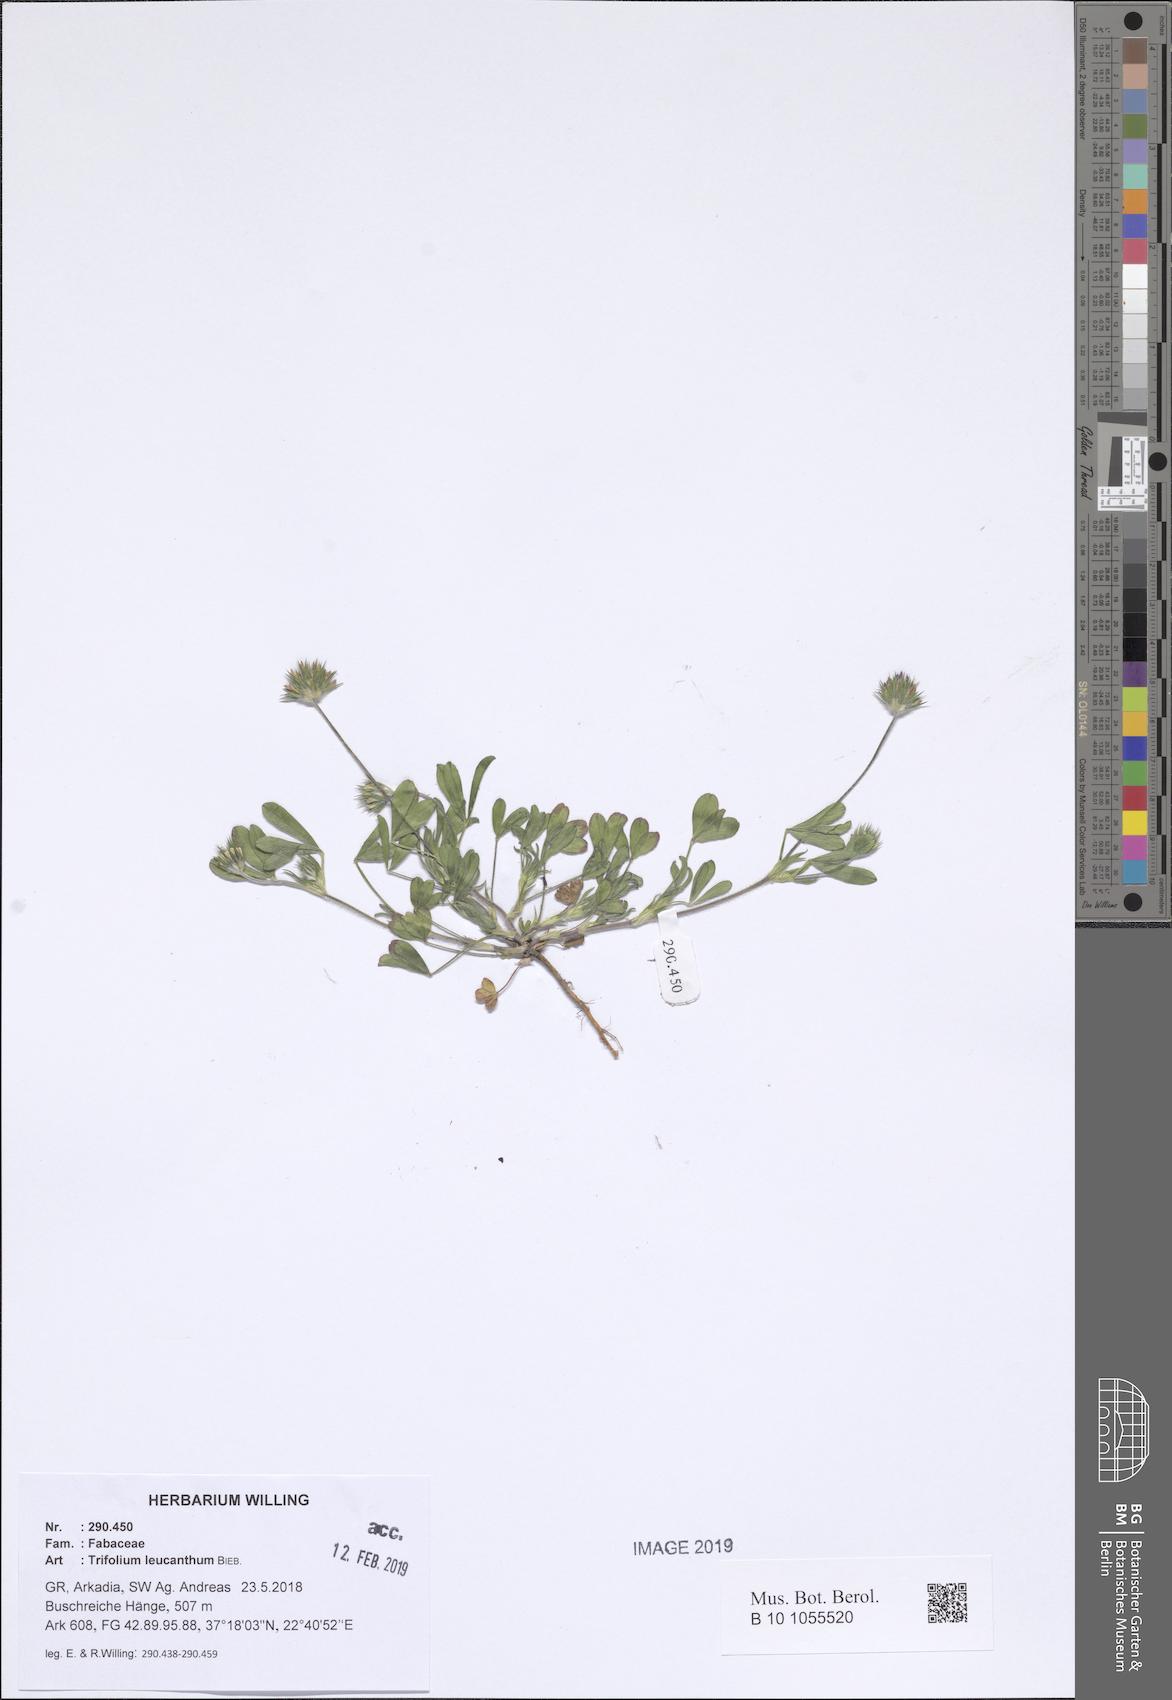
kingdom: Plantae
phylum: Tracheophyta
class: Magnoliopsida
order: Fabales
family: Fabaceae
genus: Trifolium
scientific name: Trifolium leucanthum
